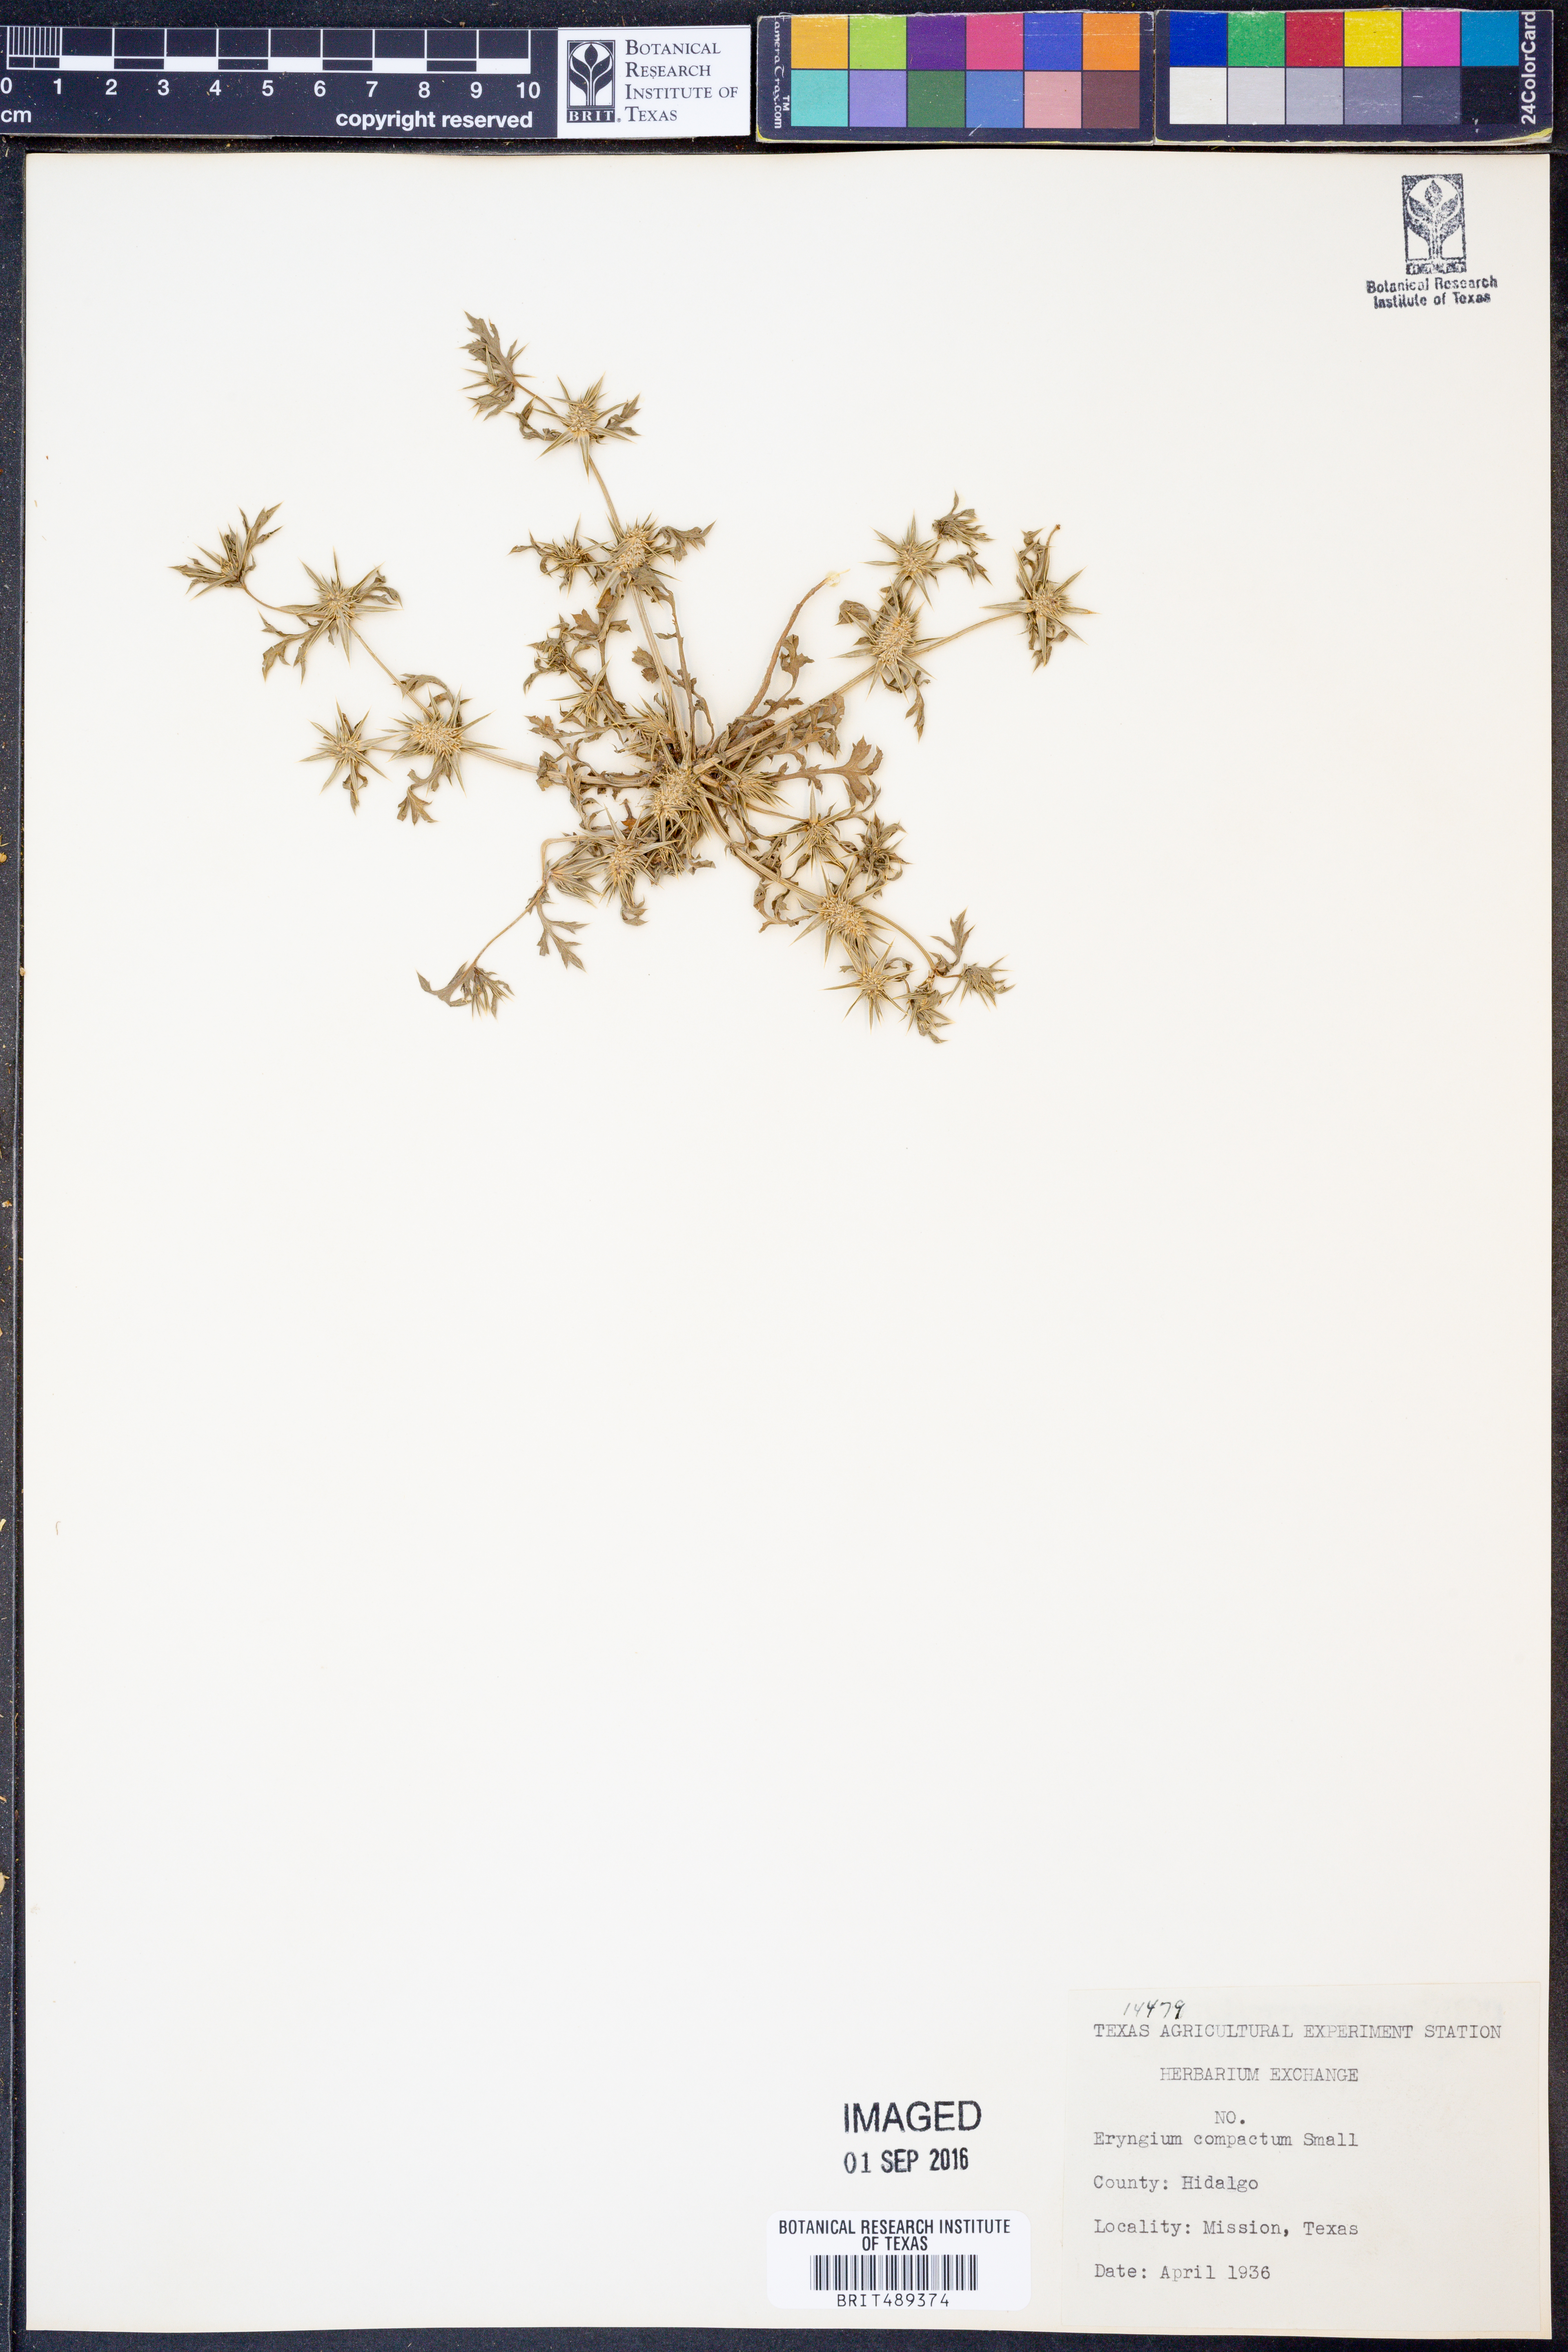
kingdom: Plantae
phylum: Tracheophyta
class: Magnoliopsida
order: Apiales
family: Apiaceae
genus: Eryngium
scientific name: Eryngium nasturtiifolium
